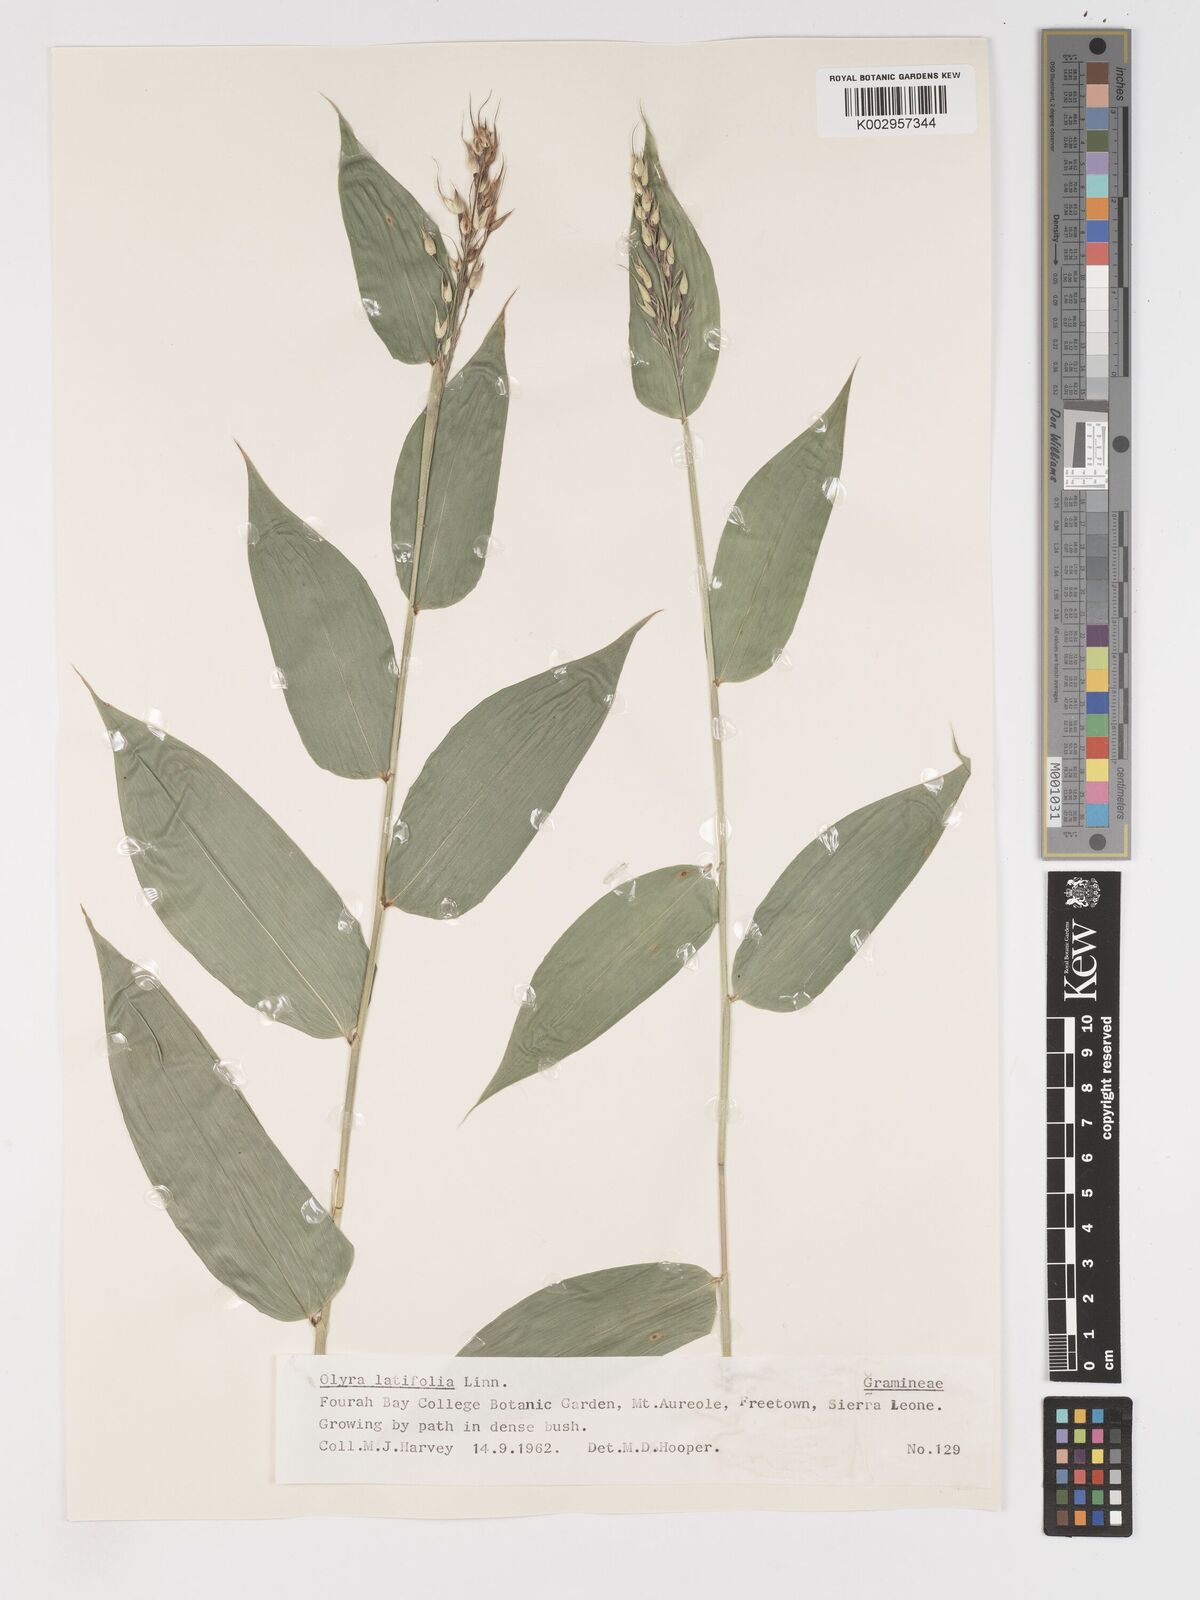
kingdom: Plantae
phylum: Tracheophyta
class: Liliopsida
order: Poales
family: Poaceae
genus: Olyra
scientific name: Olyra latifolia
